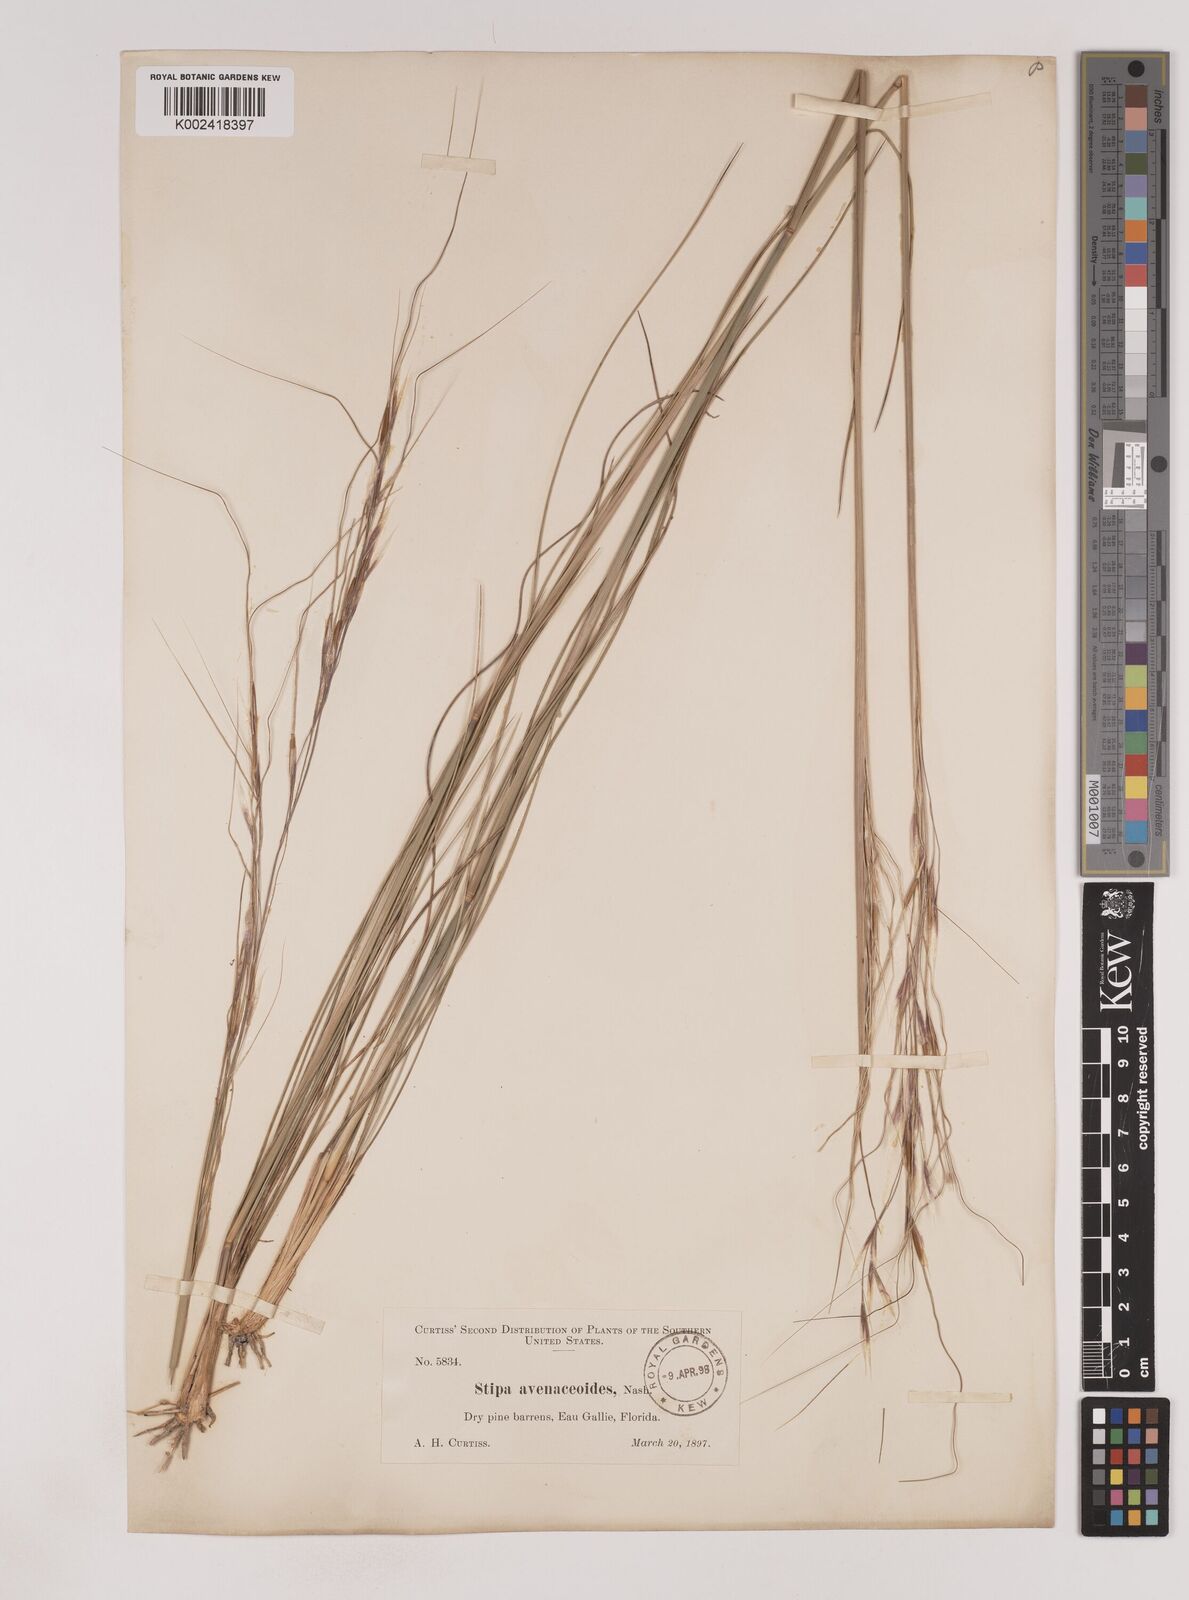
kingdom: Plantae
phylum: Tracheophyta
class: Liliopsida
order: Poales
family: Poaceae
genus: Piptochaetium
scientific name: Piptochaetium avenacioides
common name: Florida needlegrass
